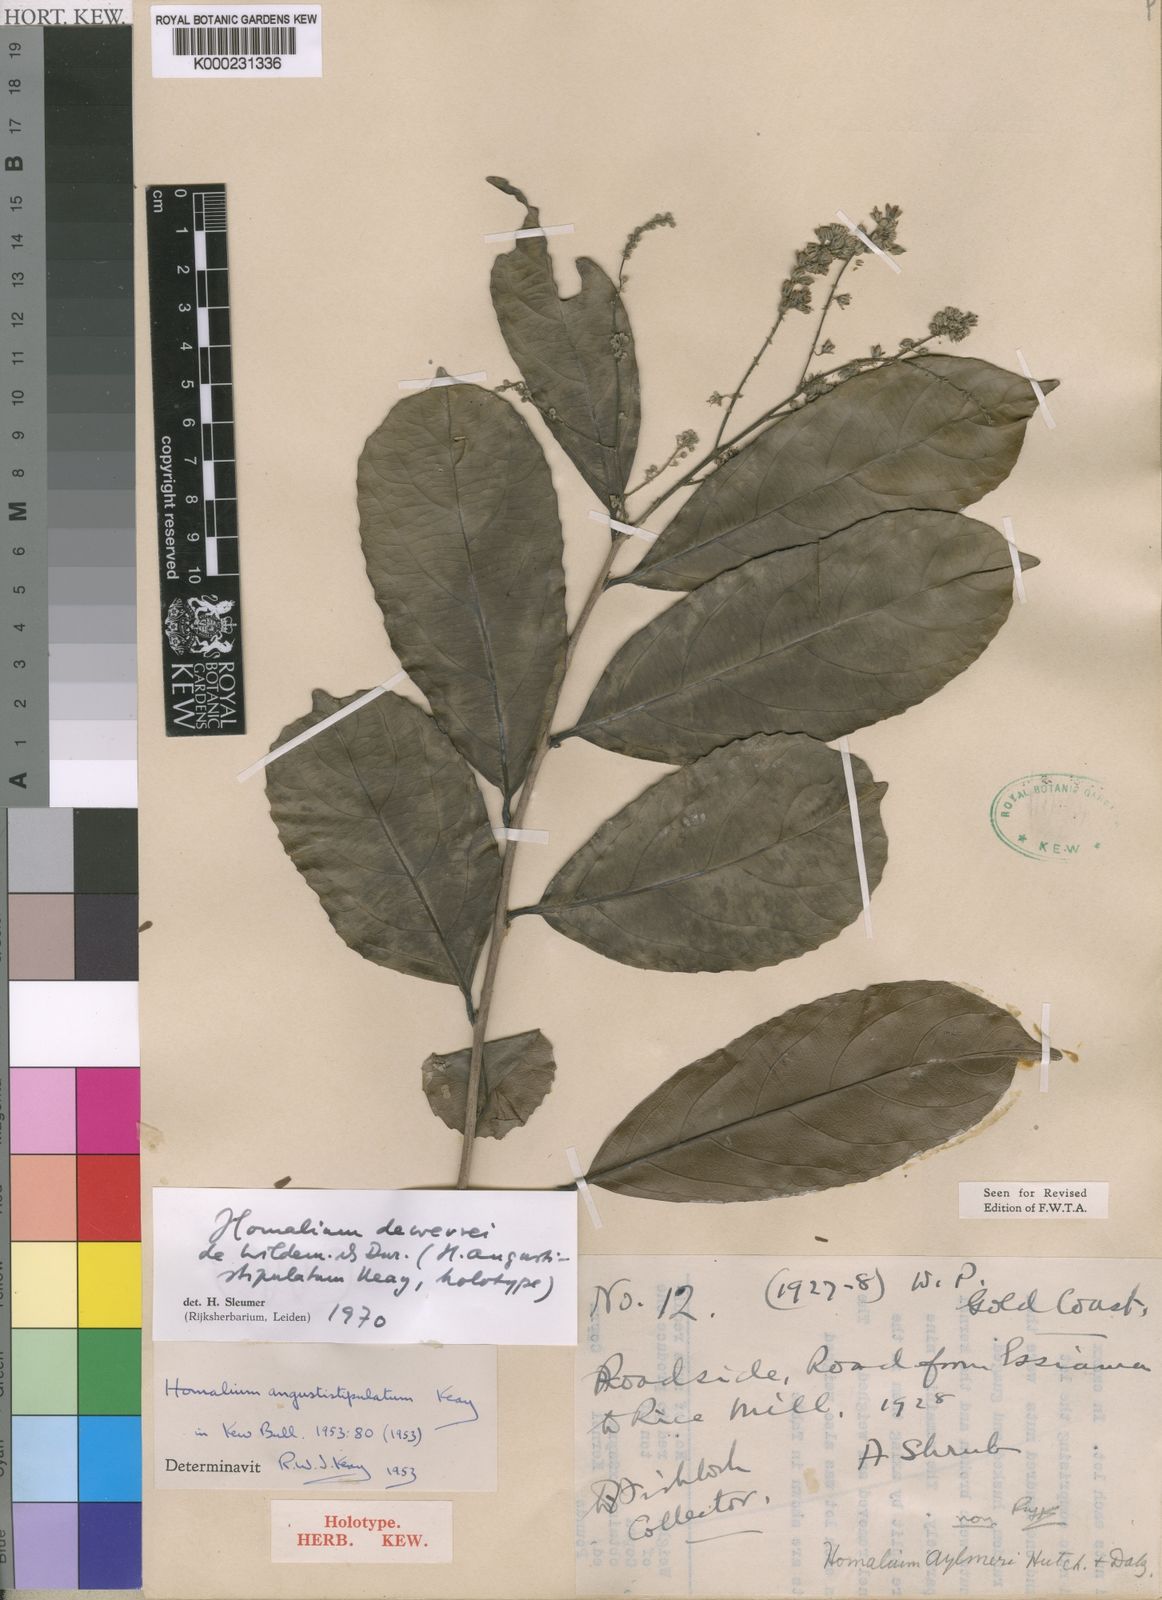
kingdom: Plantae
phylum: Tracheophyta
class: Magnoliopsida
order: Malpighiales
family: Salicaceae
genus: Homalium
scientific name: Homalium dewevrei
